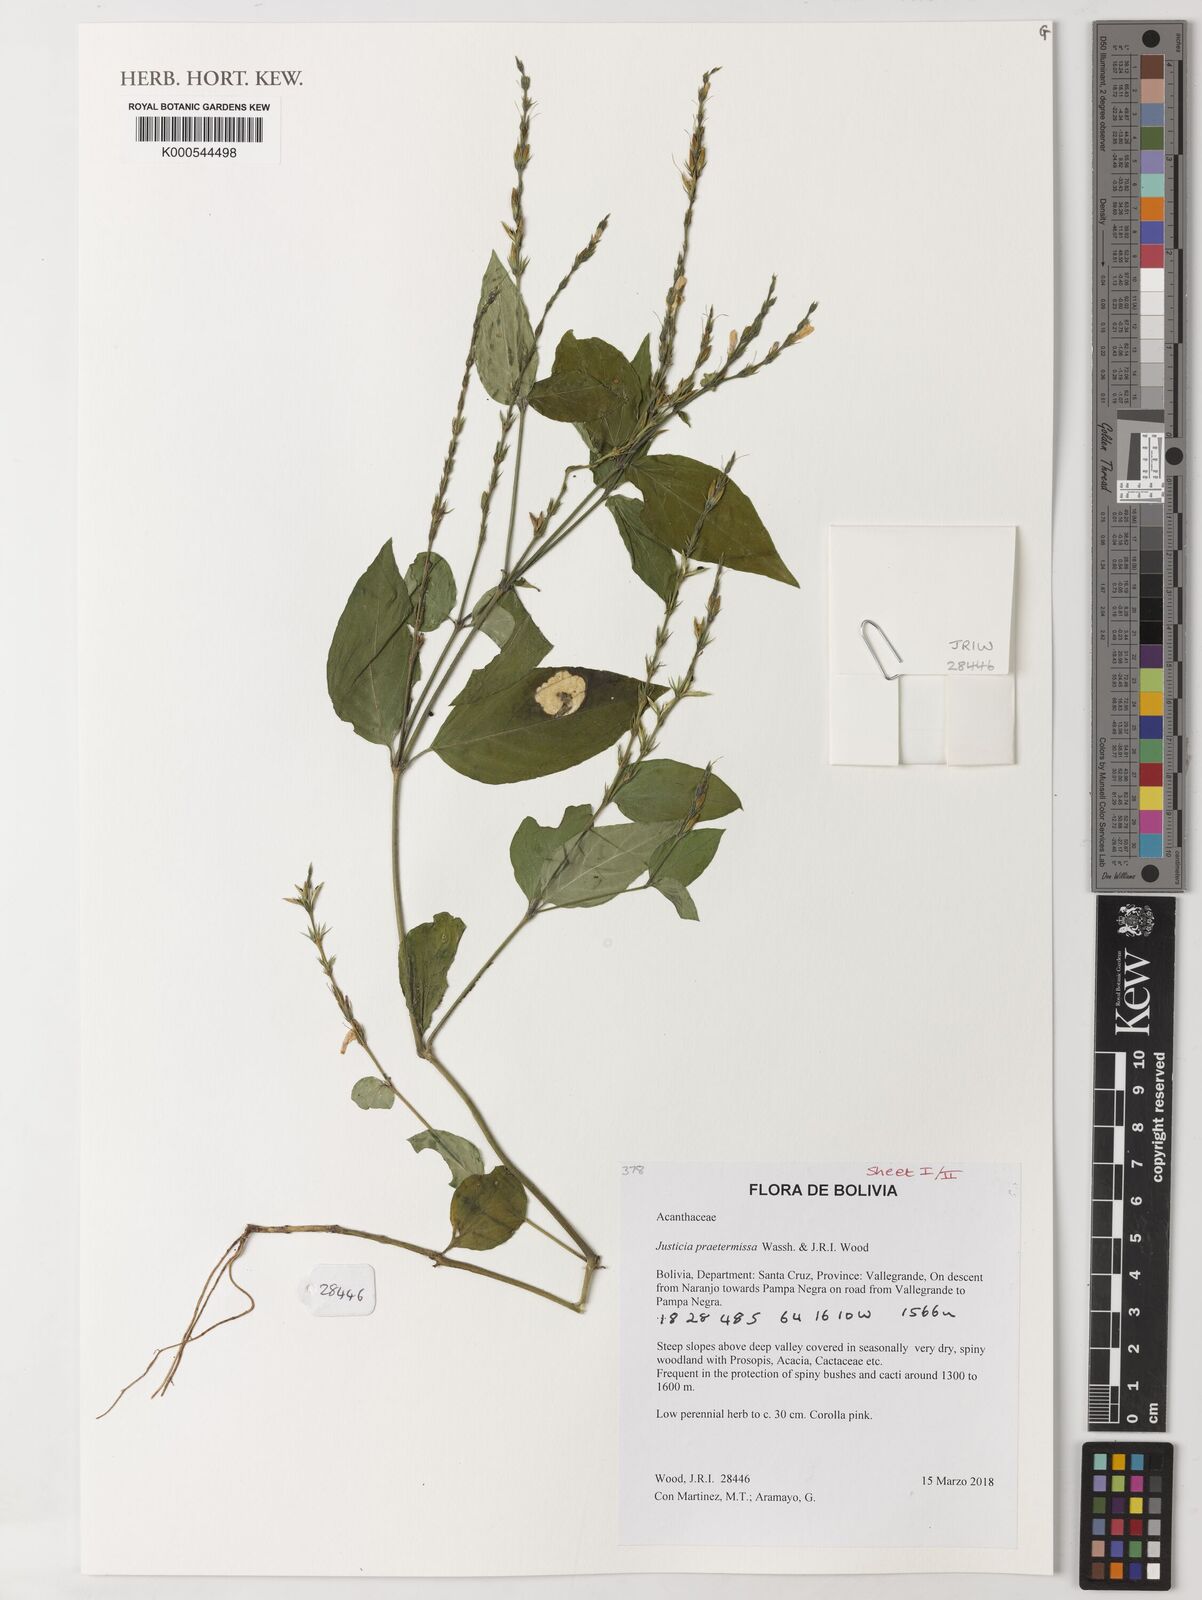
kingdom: Plantae
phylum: Tracheophyta
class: Magnoliopsida
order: Lamiales
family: Acanthaceae
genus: Justicia
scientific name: Justicia cuspidulata
